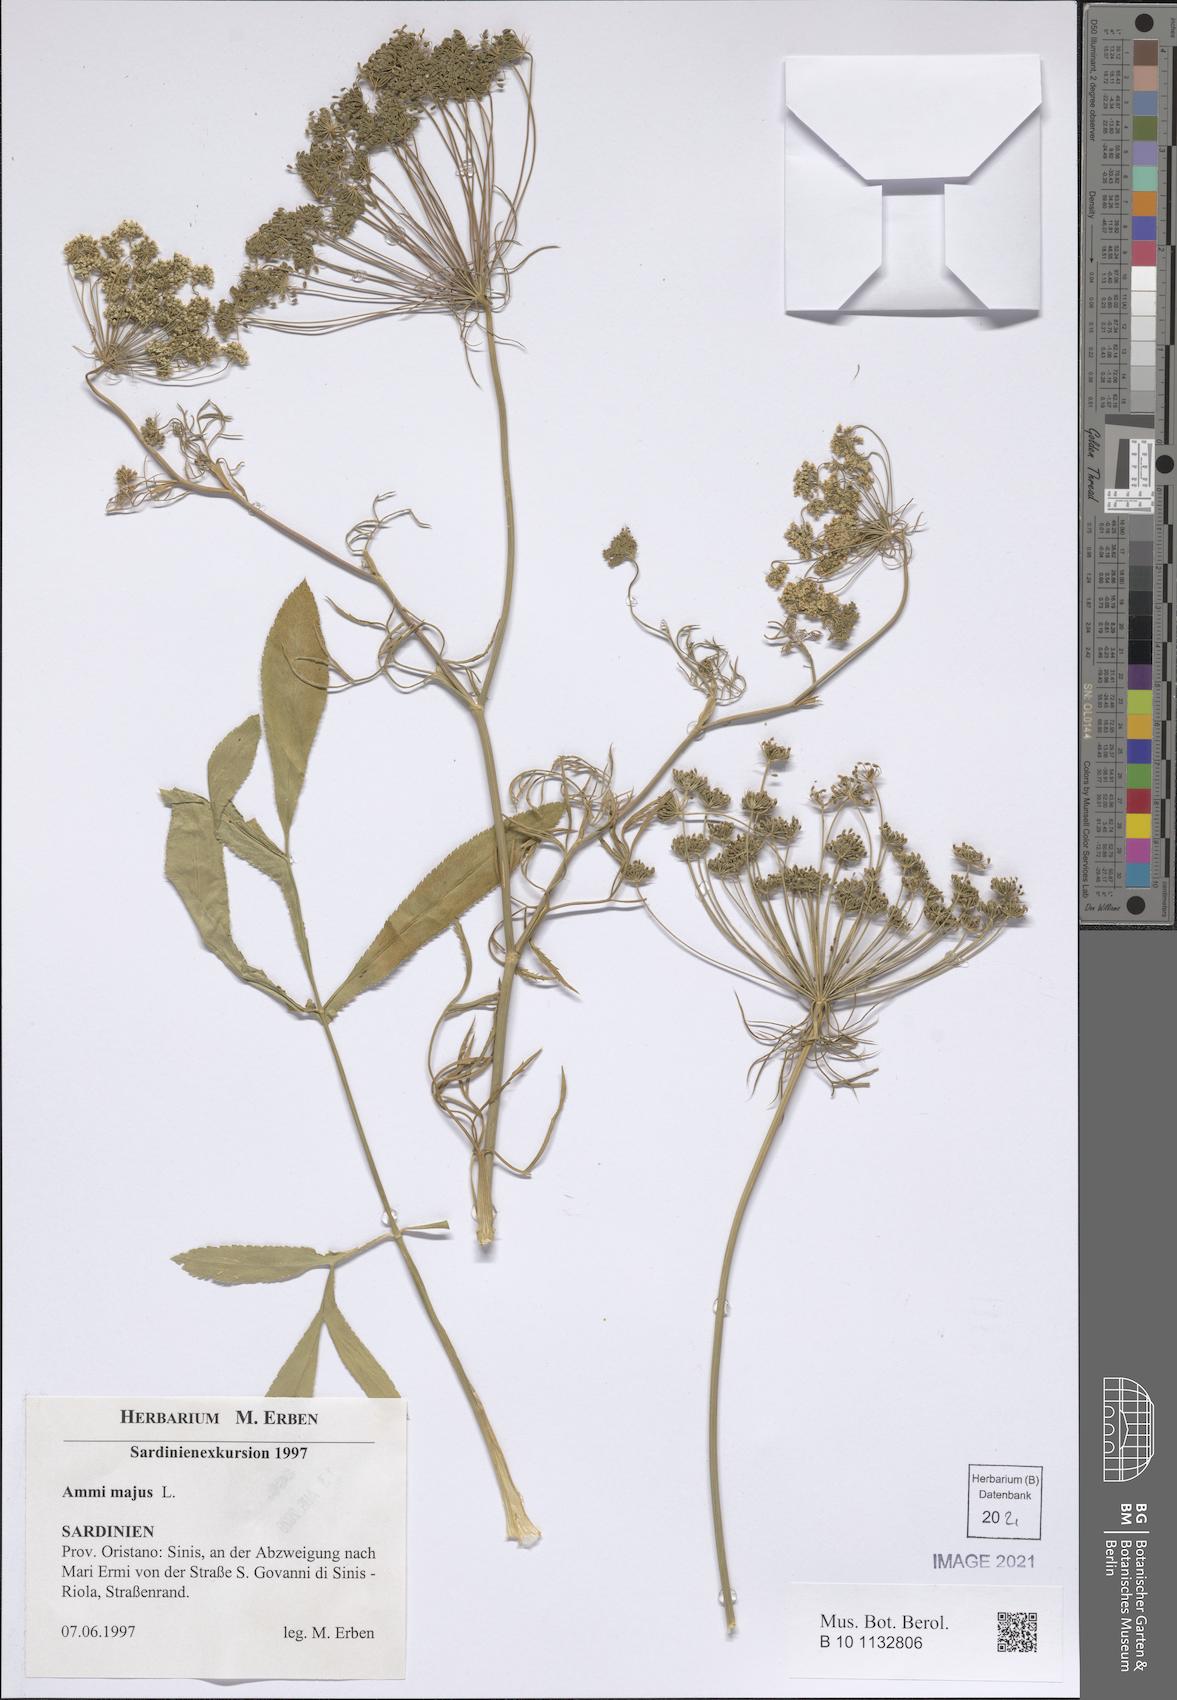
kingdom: Plantae
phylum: Tracheophyta
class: Magnoliopsida
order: Apiales
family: Apiaceae
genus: Ammi
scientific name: Ammi majus
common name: Bullwort
